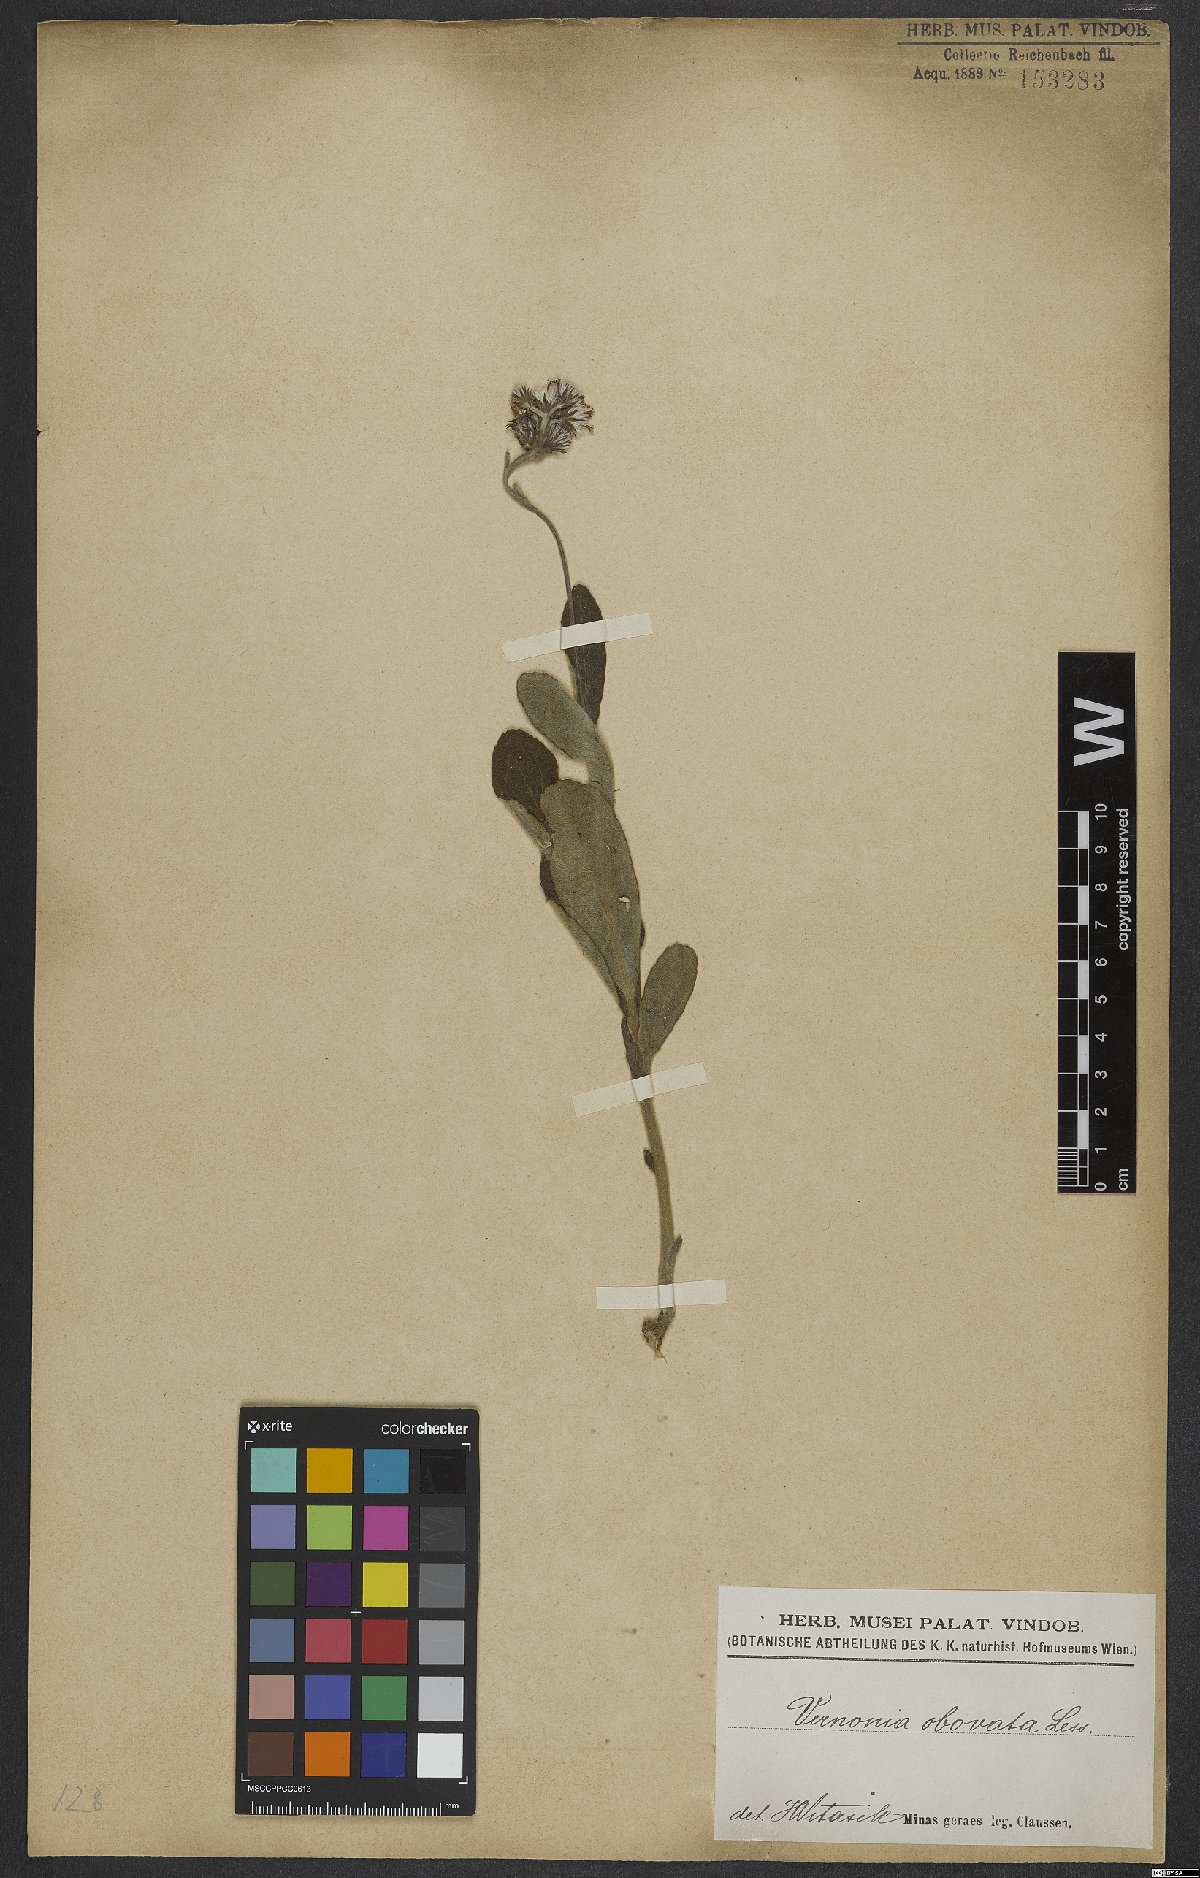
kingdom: Plantae
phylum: Tracheophyta
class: Magnoliopsida
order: Asterales
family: Asteraceae
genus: Chrysolaena
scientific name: Chrysolaena obovata
